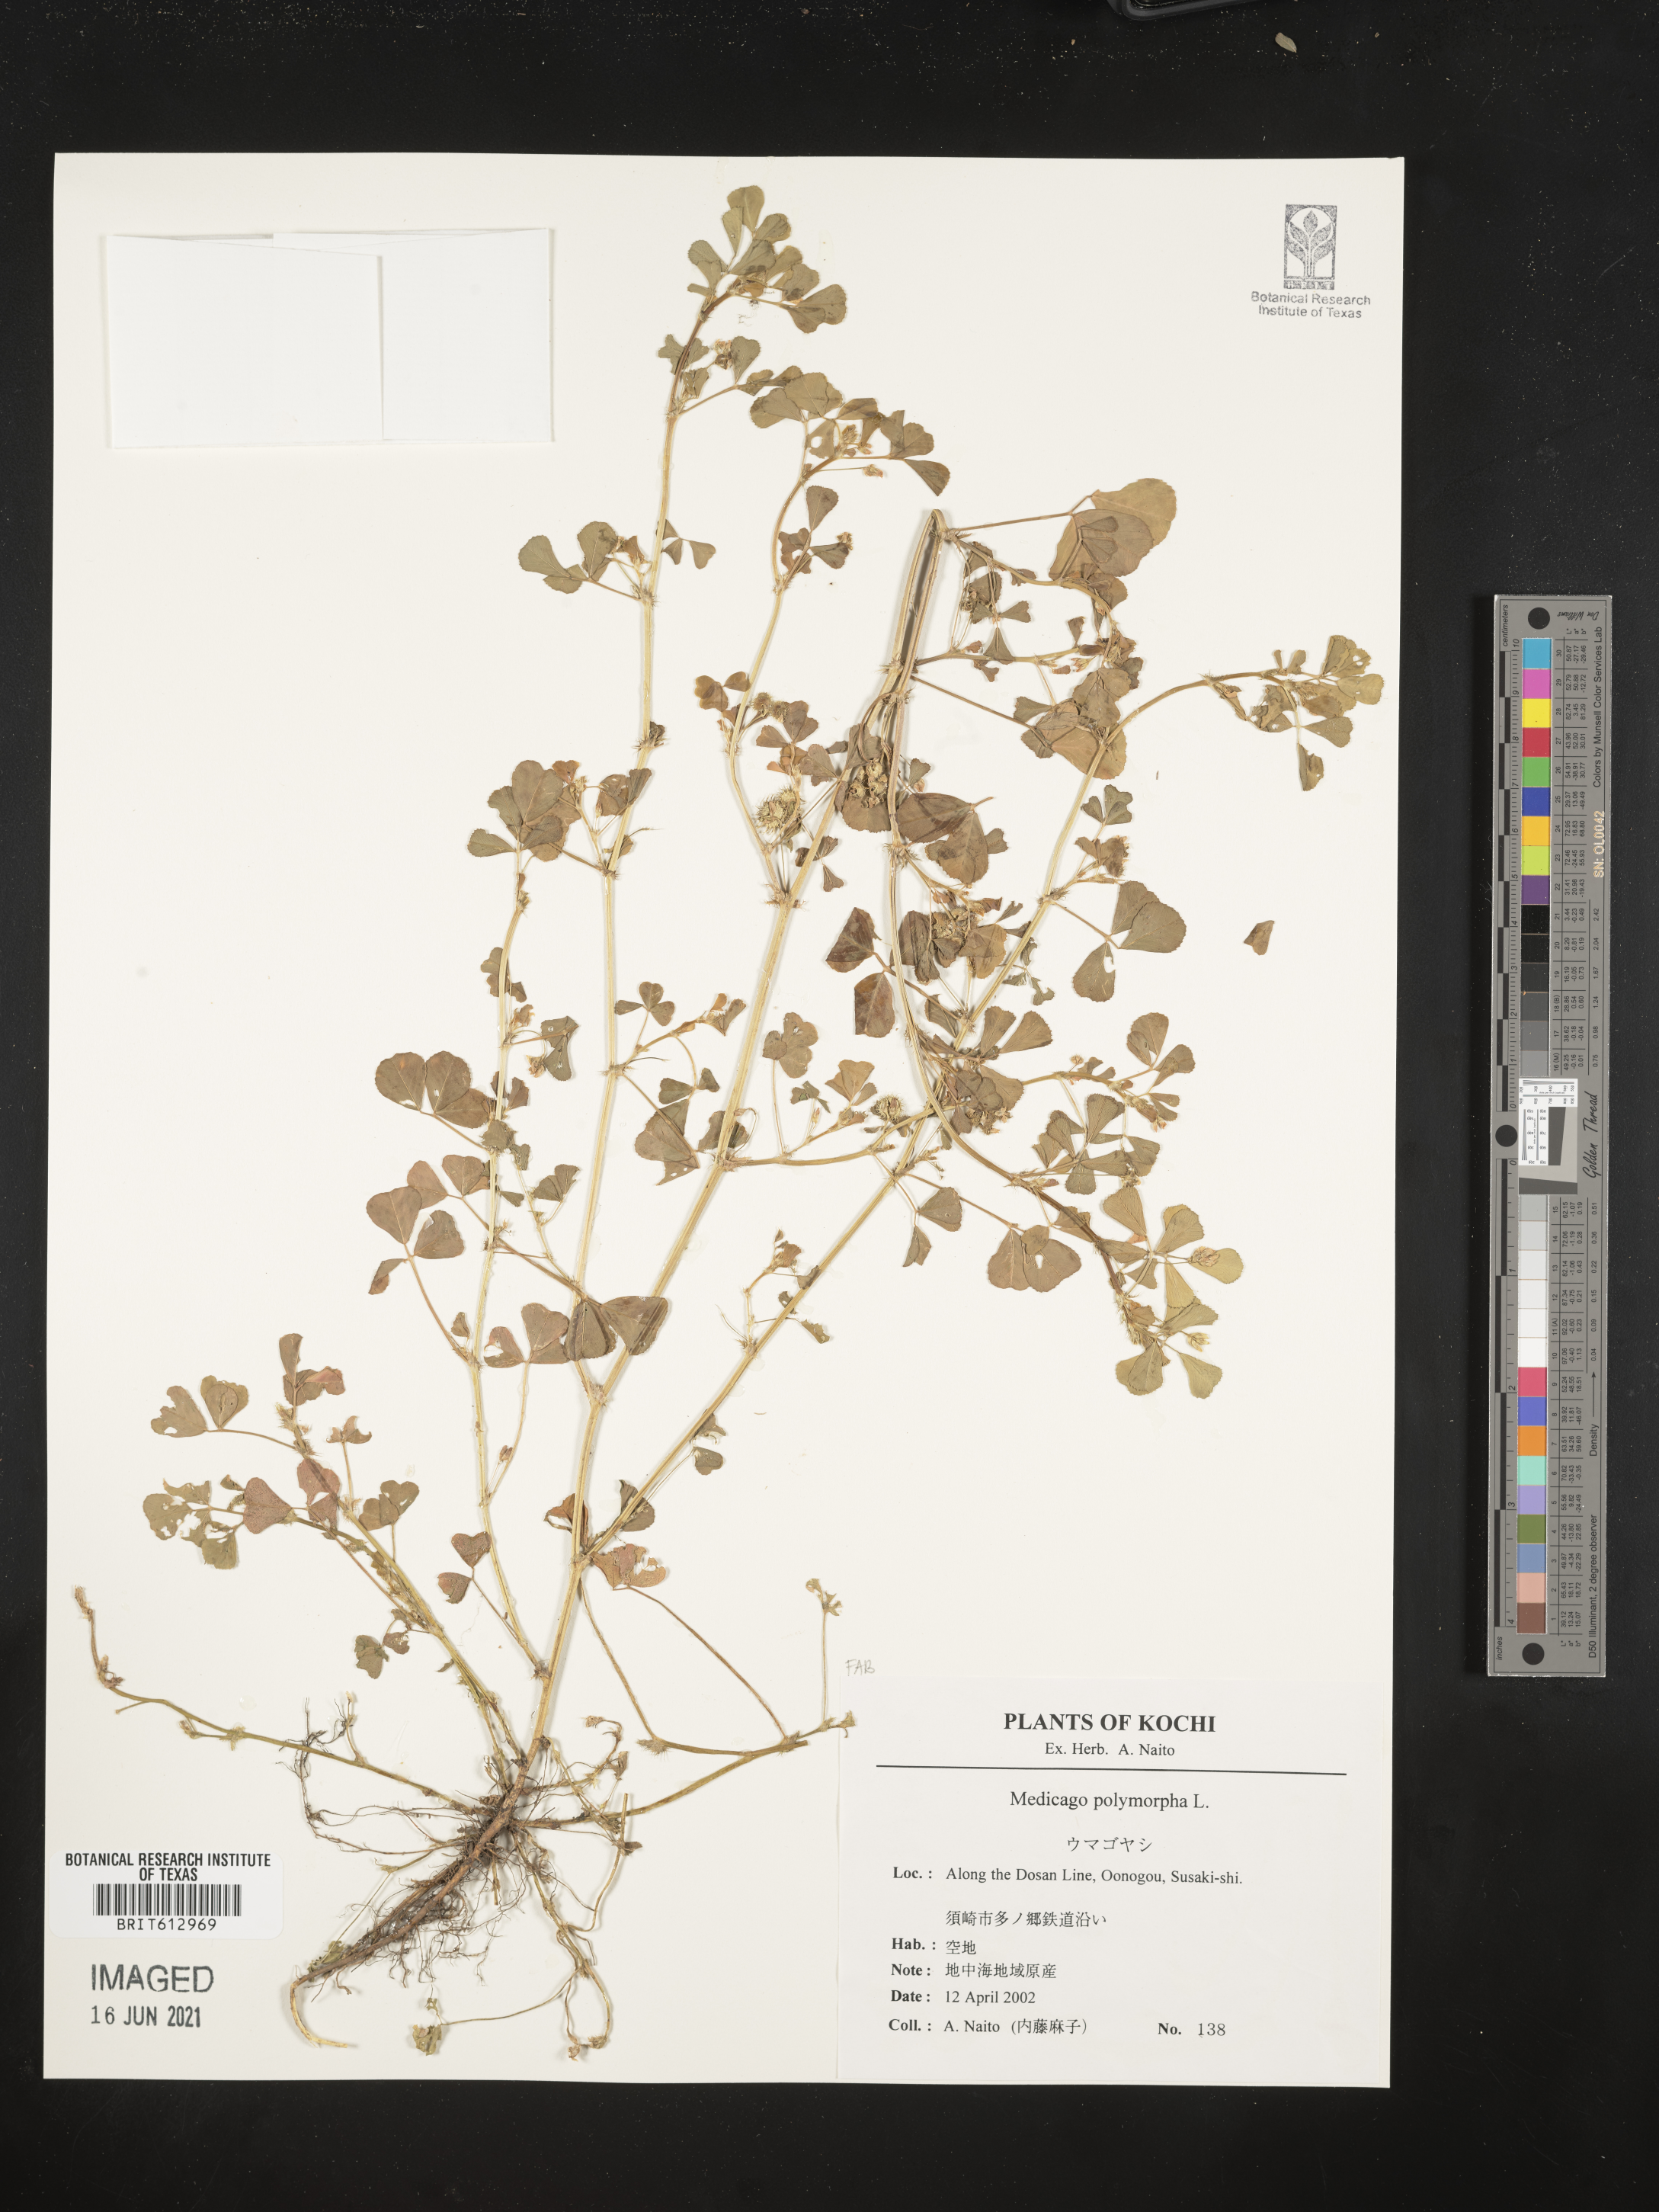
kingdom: Plantae
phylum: Tracheophyta
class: Magnoliopsida
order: Fabales
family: Fabaceae
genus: Medicago
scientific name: Medicago polymorpha
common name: Burclover
